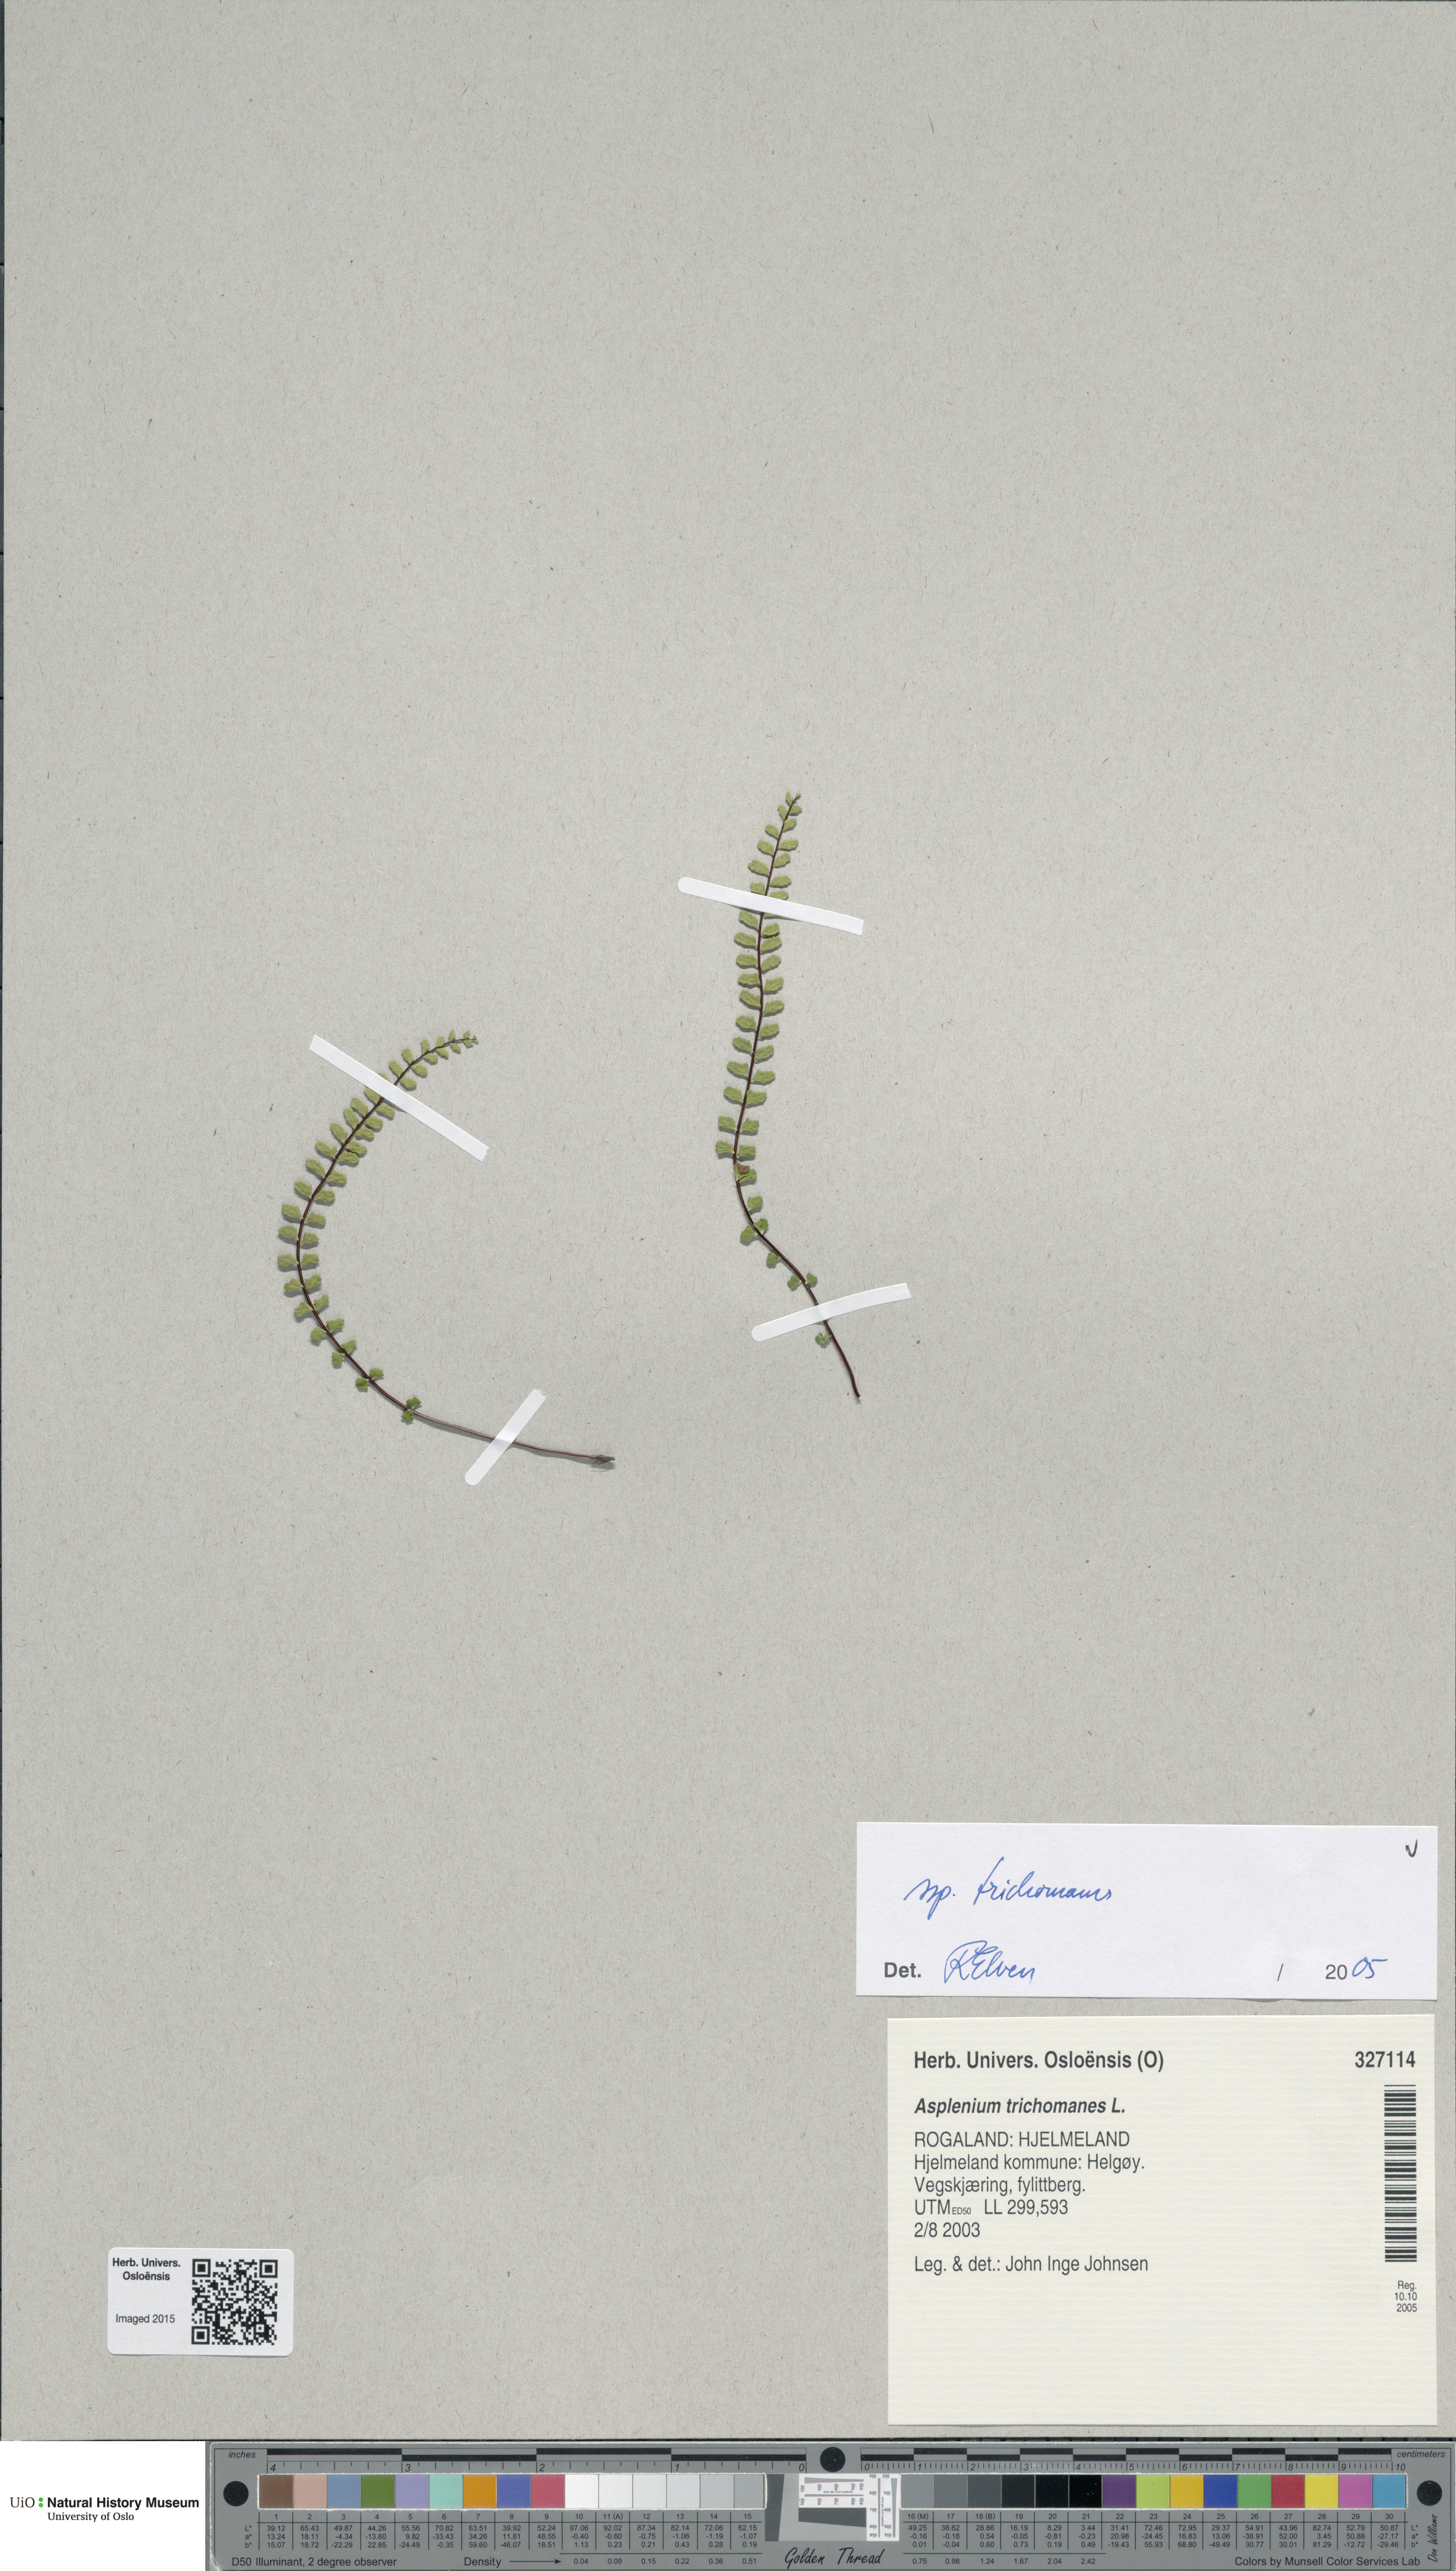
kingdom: Plantae
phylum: Tracheophyta
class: Polypodiopsida
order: Polypodiales
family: Aspleniaceae
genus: Asplenium
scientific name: Asplenium trichomanes
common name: Maidenhair spleenwort
